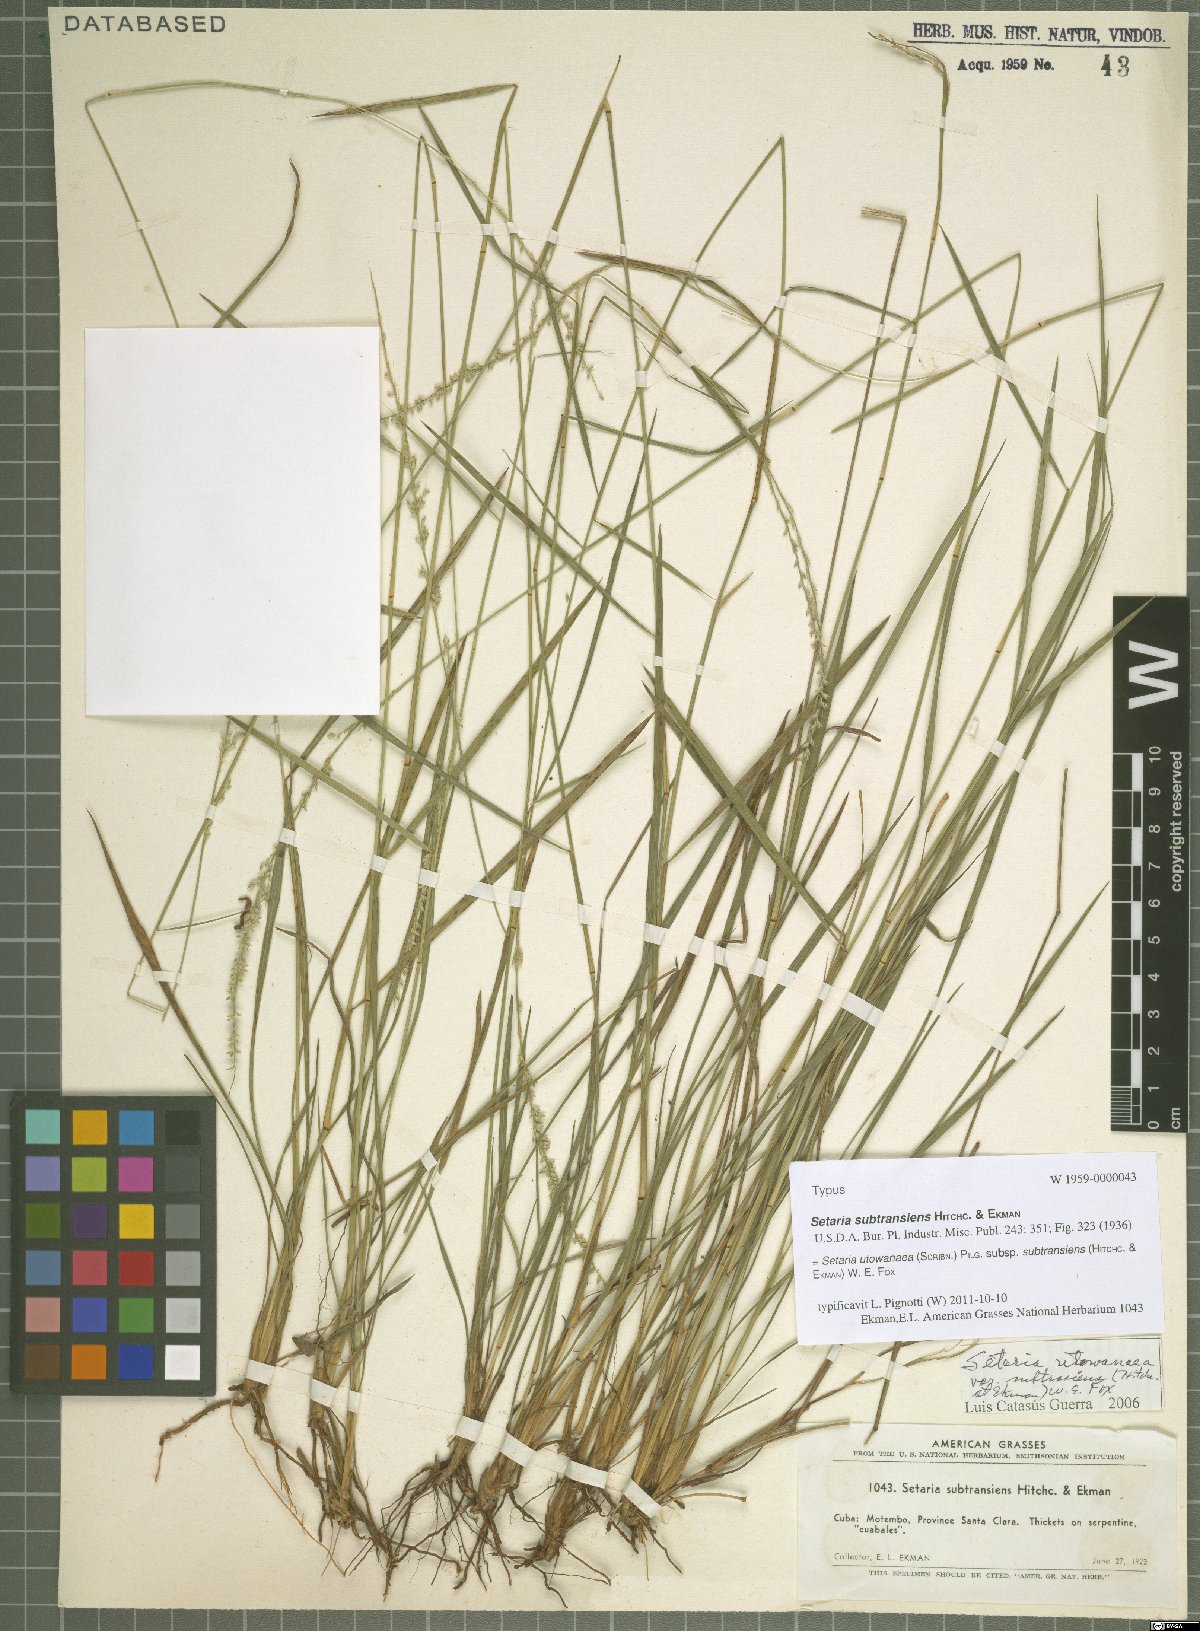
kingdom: Plantae
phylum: Tracheophyta
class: Liliopsida
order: Poales
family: Poaceae
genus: Setaria
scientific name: Setaria utowanaea
